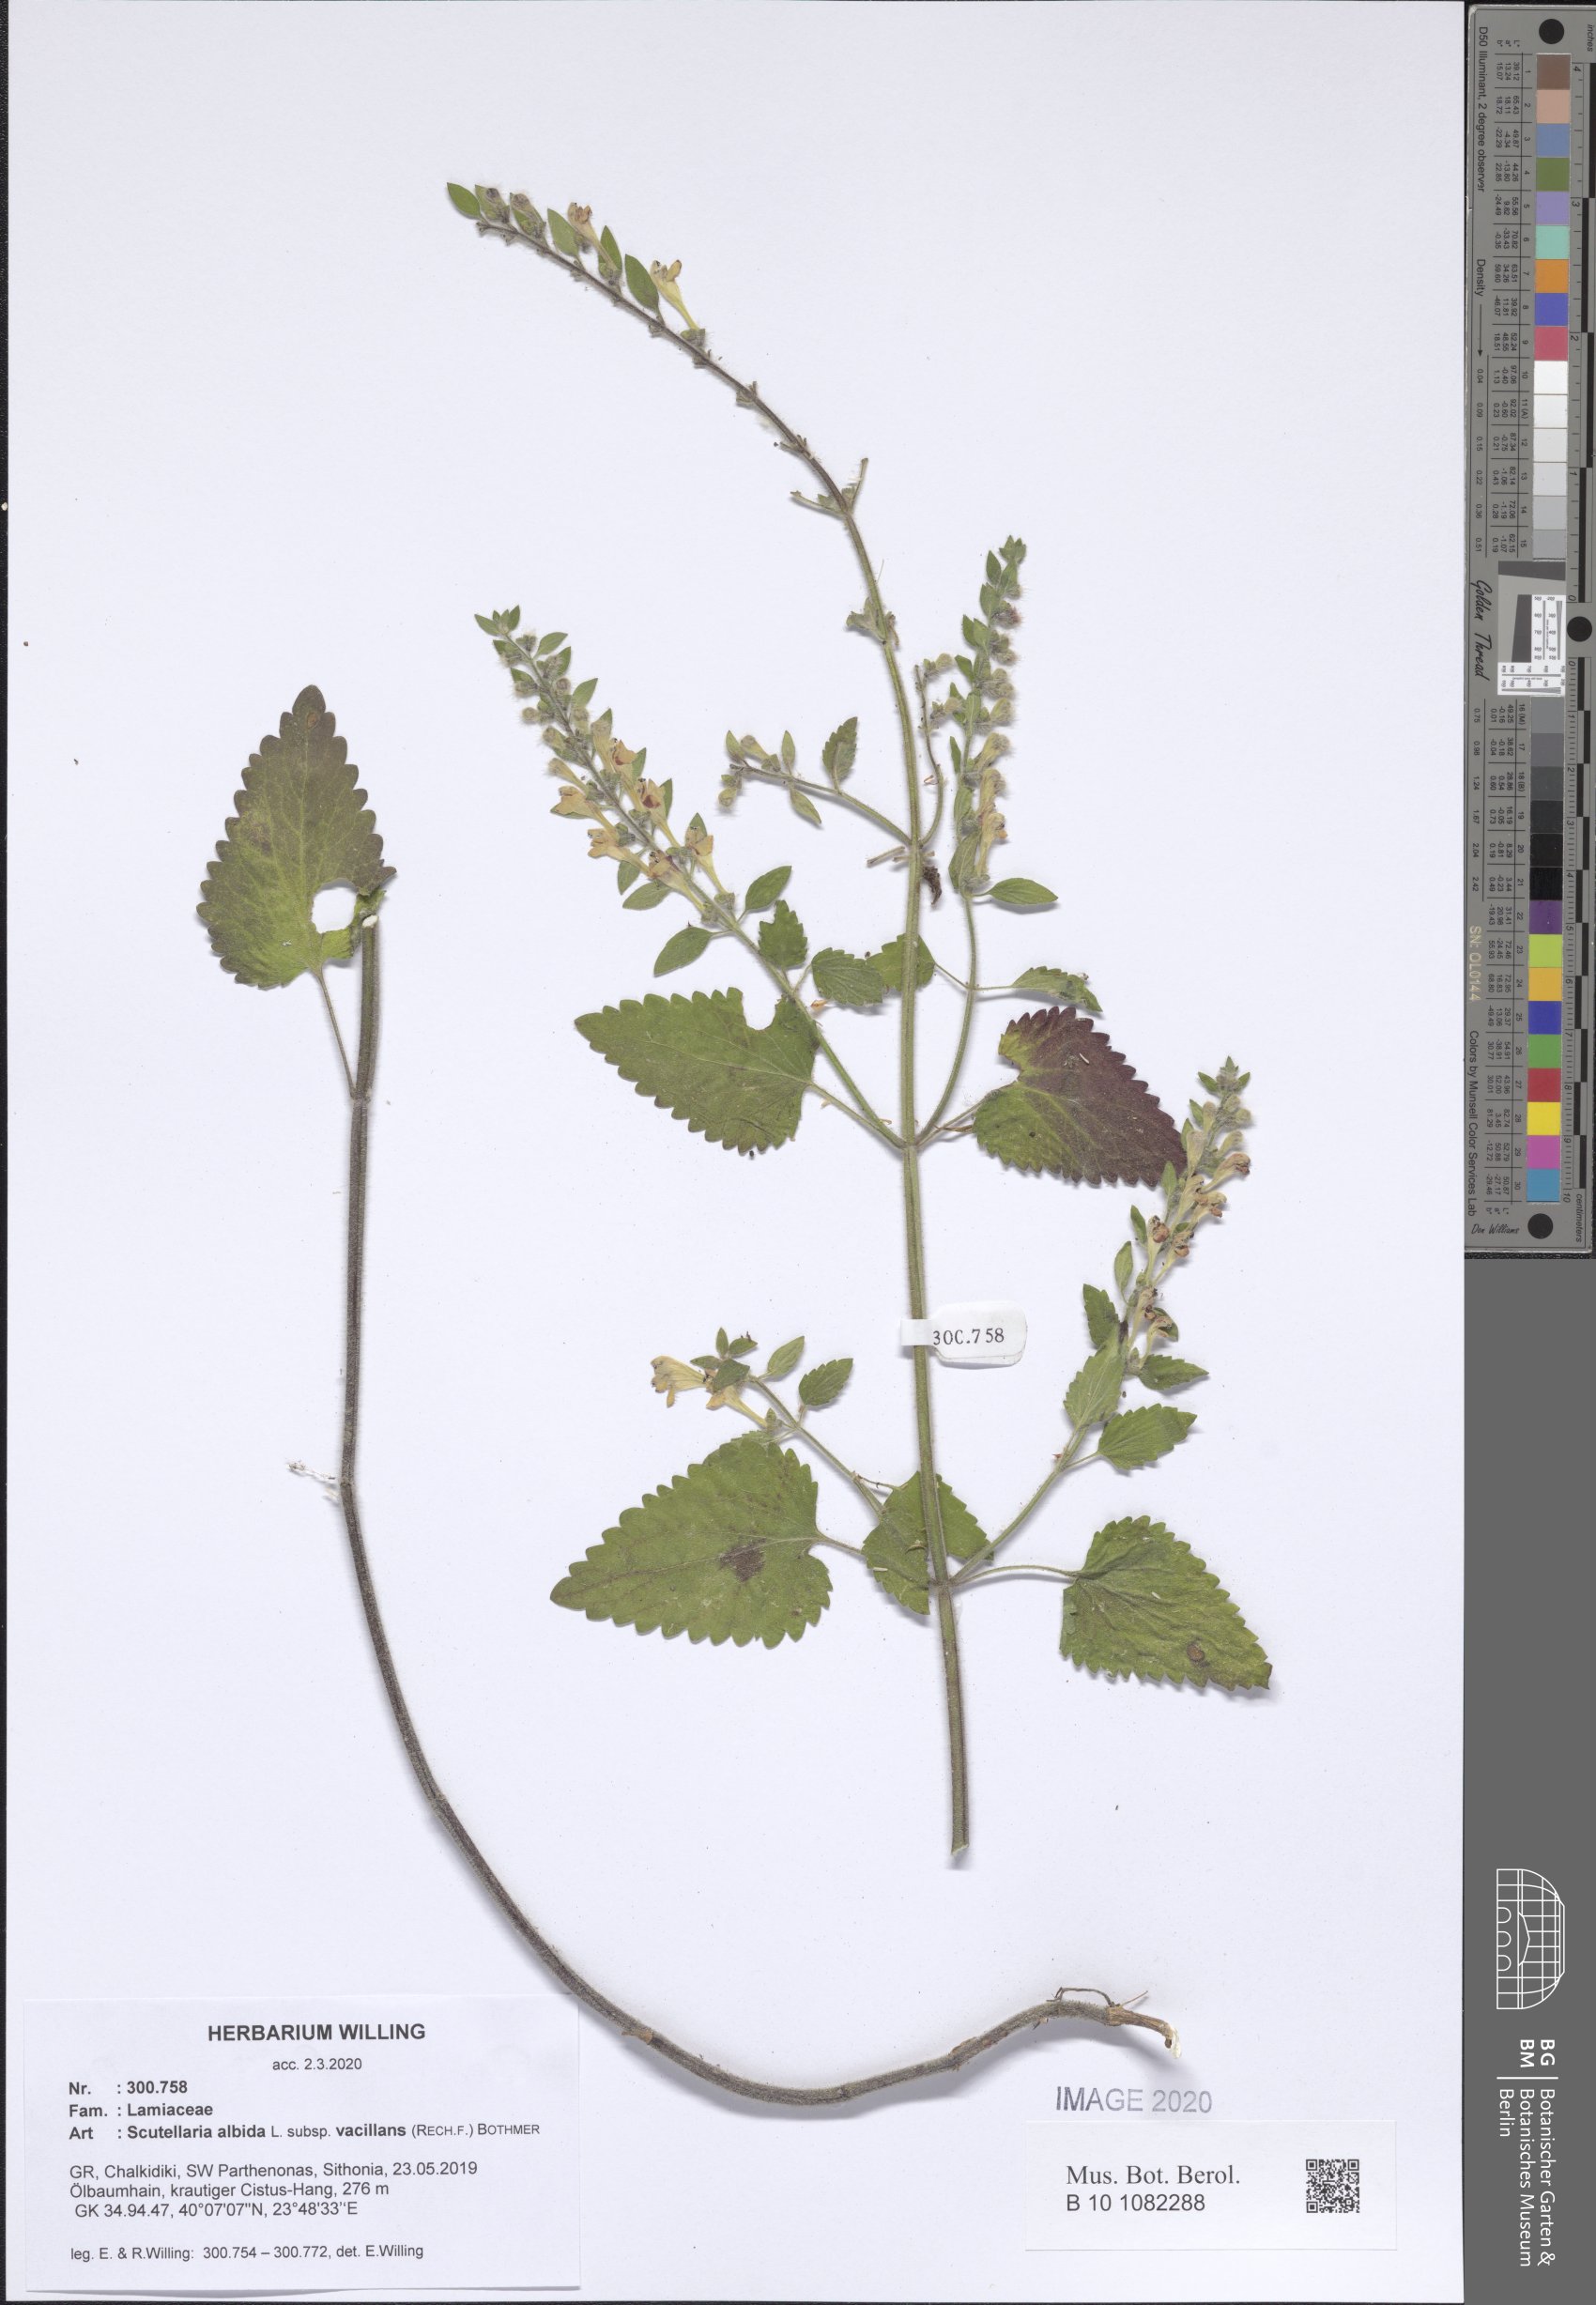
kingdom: Plantae
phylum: Tracheophyta
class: Magnoliopsida
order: Lamiales
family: Lamiaceae
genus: Scutellaria
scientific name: Scutellaria albida
